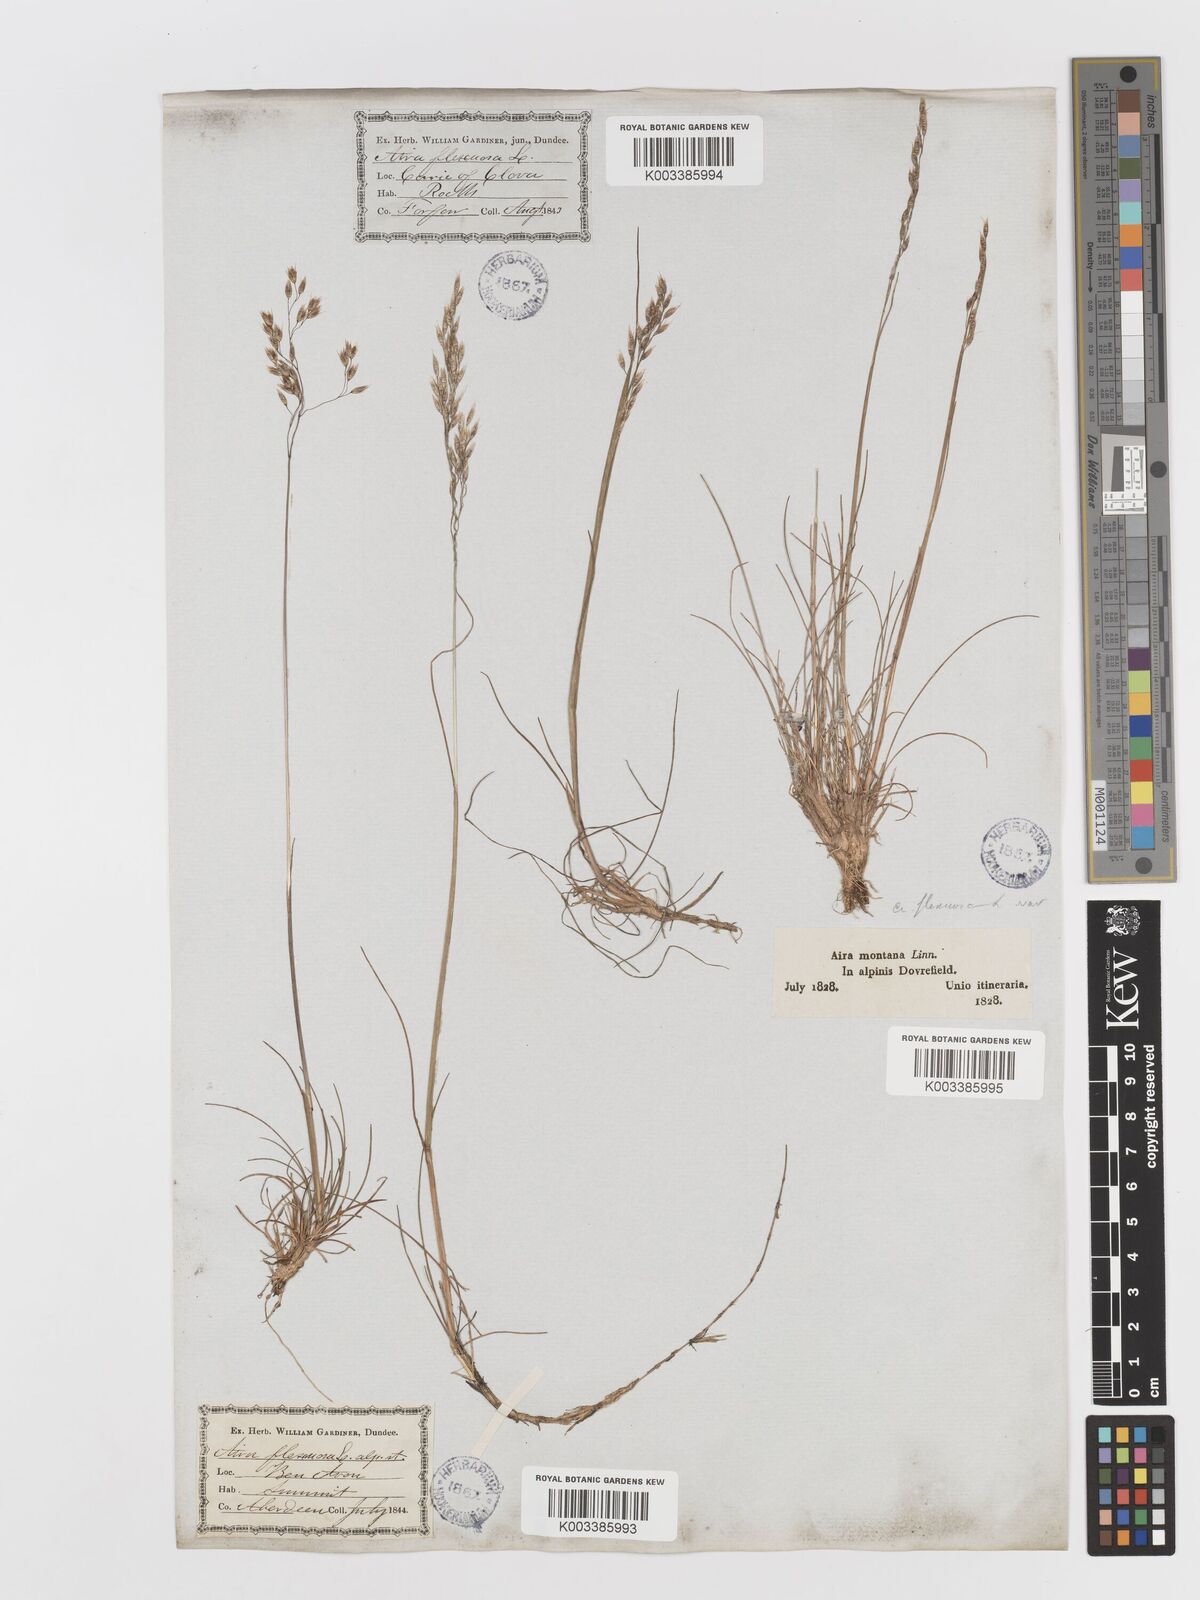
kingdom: Plantae
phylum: Tracheophyta
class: Liliopsida
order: Poales
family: Poaceae
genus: Avenella
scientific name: Avenella flexuosa
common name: Wavy hairgrass
